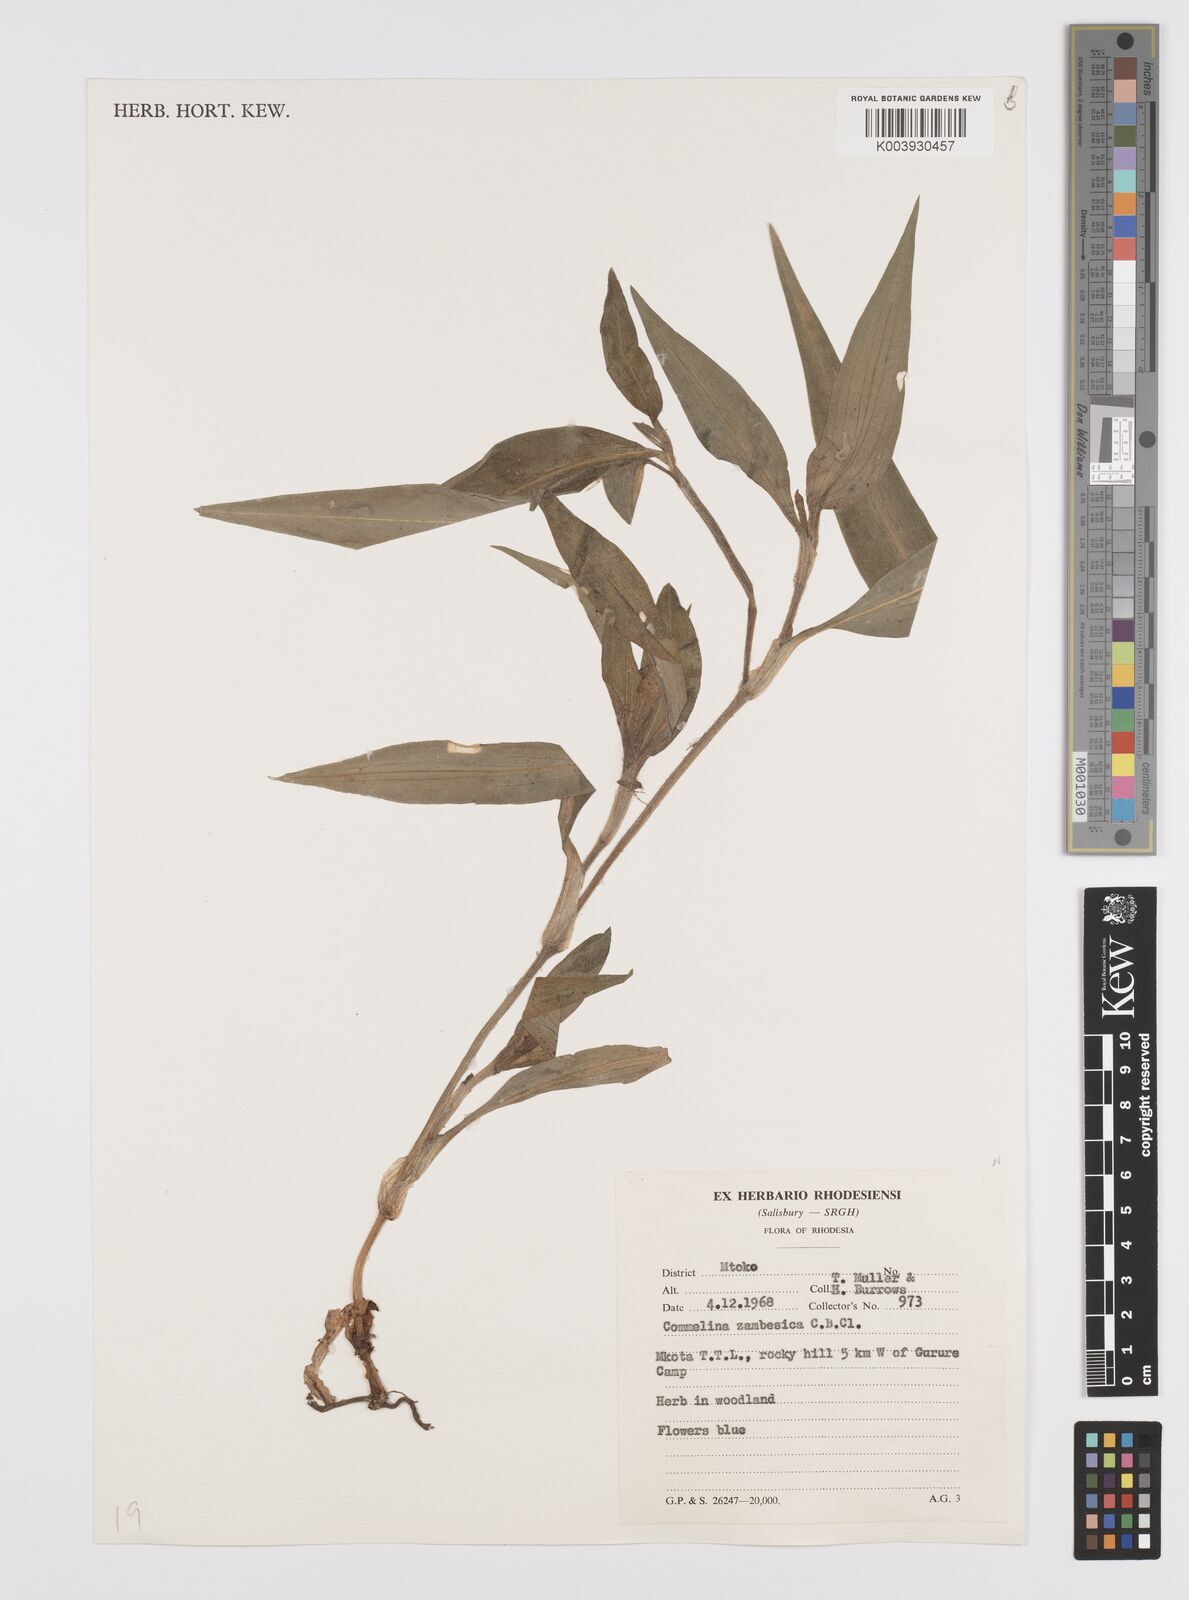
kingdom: Plantae
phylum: Tracheophyta
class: Liliopsida
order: Commelinales
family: Commelinaceae
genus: Commelina
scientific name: Commelina zambesica
